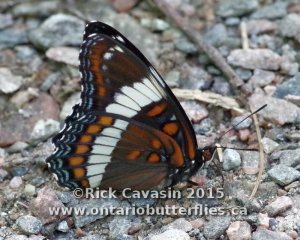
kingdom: Animalia
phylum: Arthropoda
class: Insecta
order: Lepidoptera
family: Nymphalidae
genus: Limenitis
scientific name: Limenitis arthemis
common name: Red-spotted Admiral
